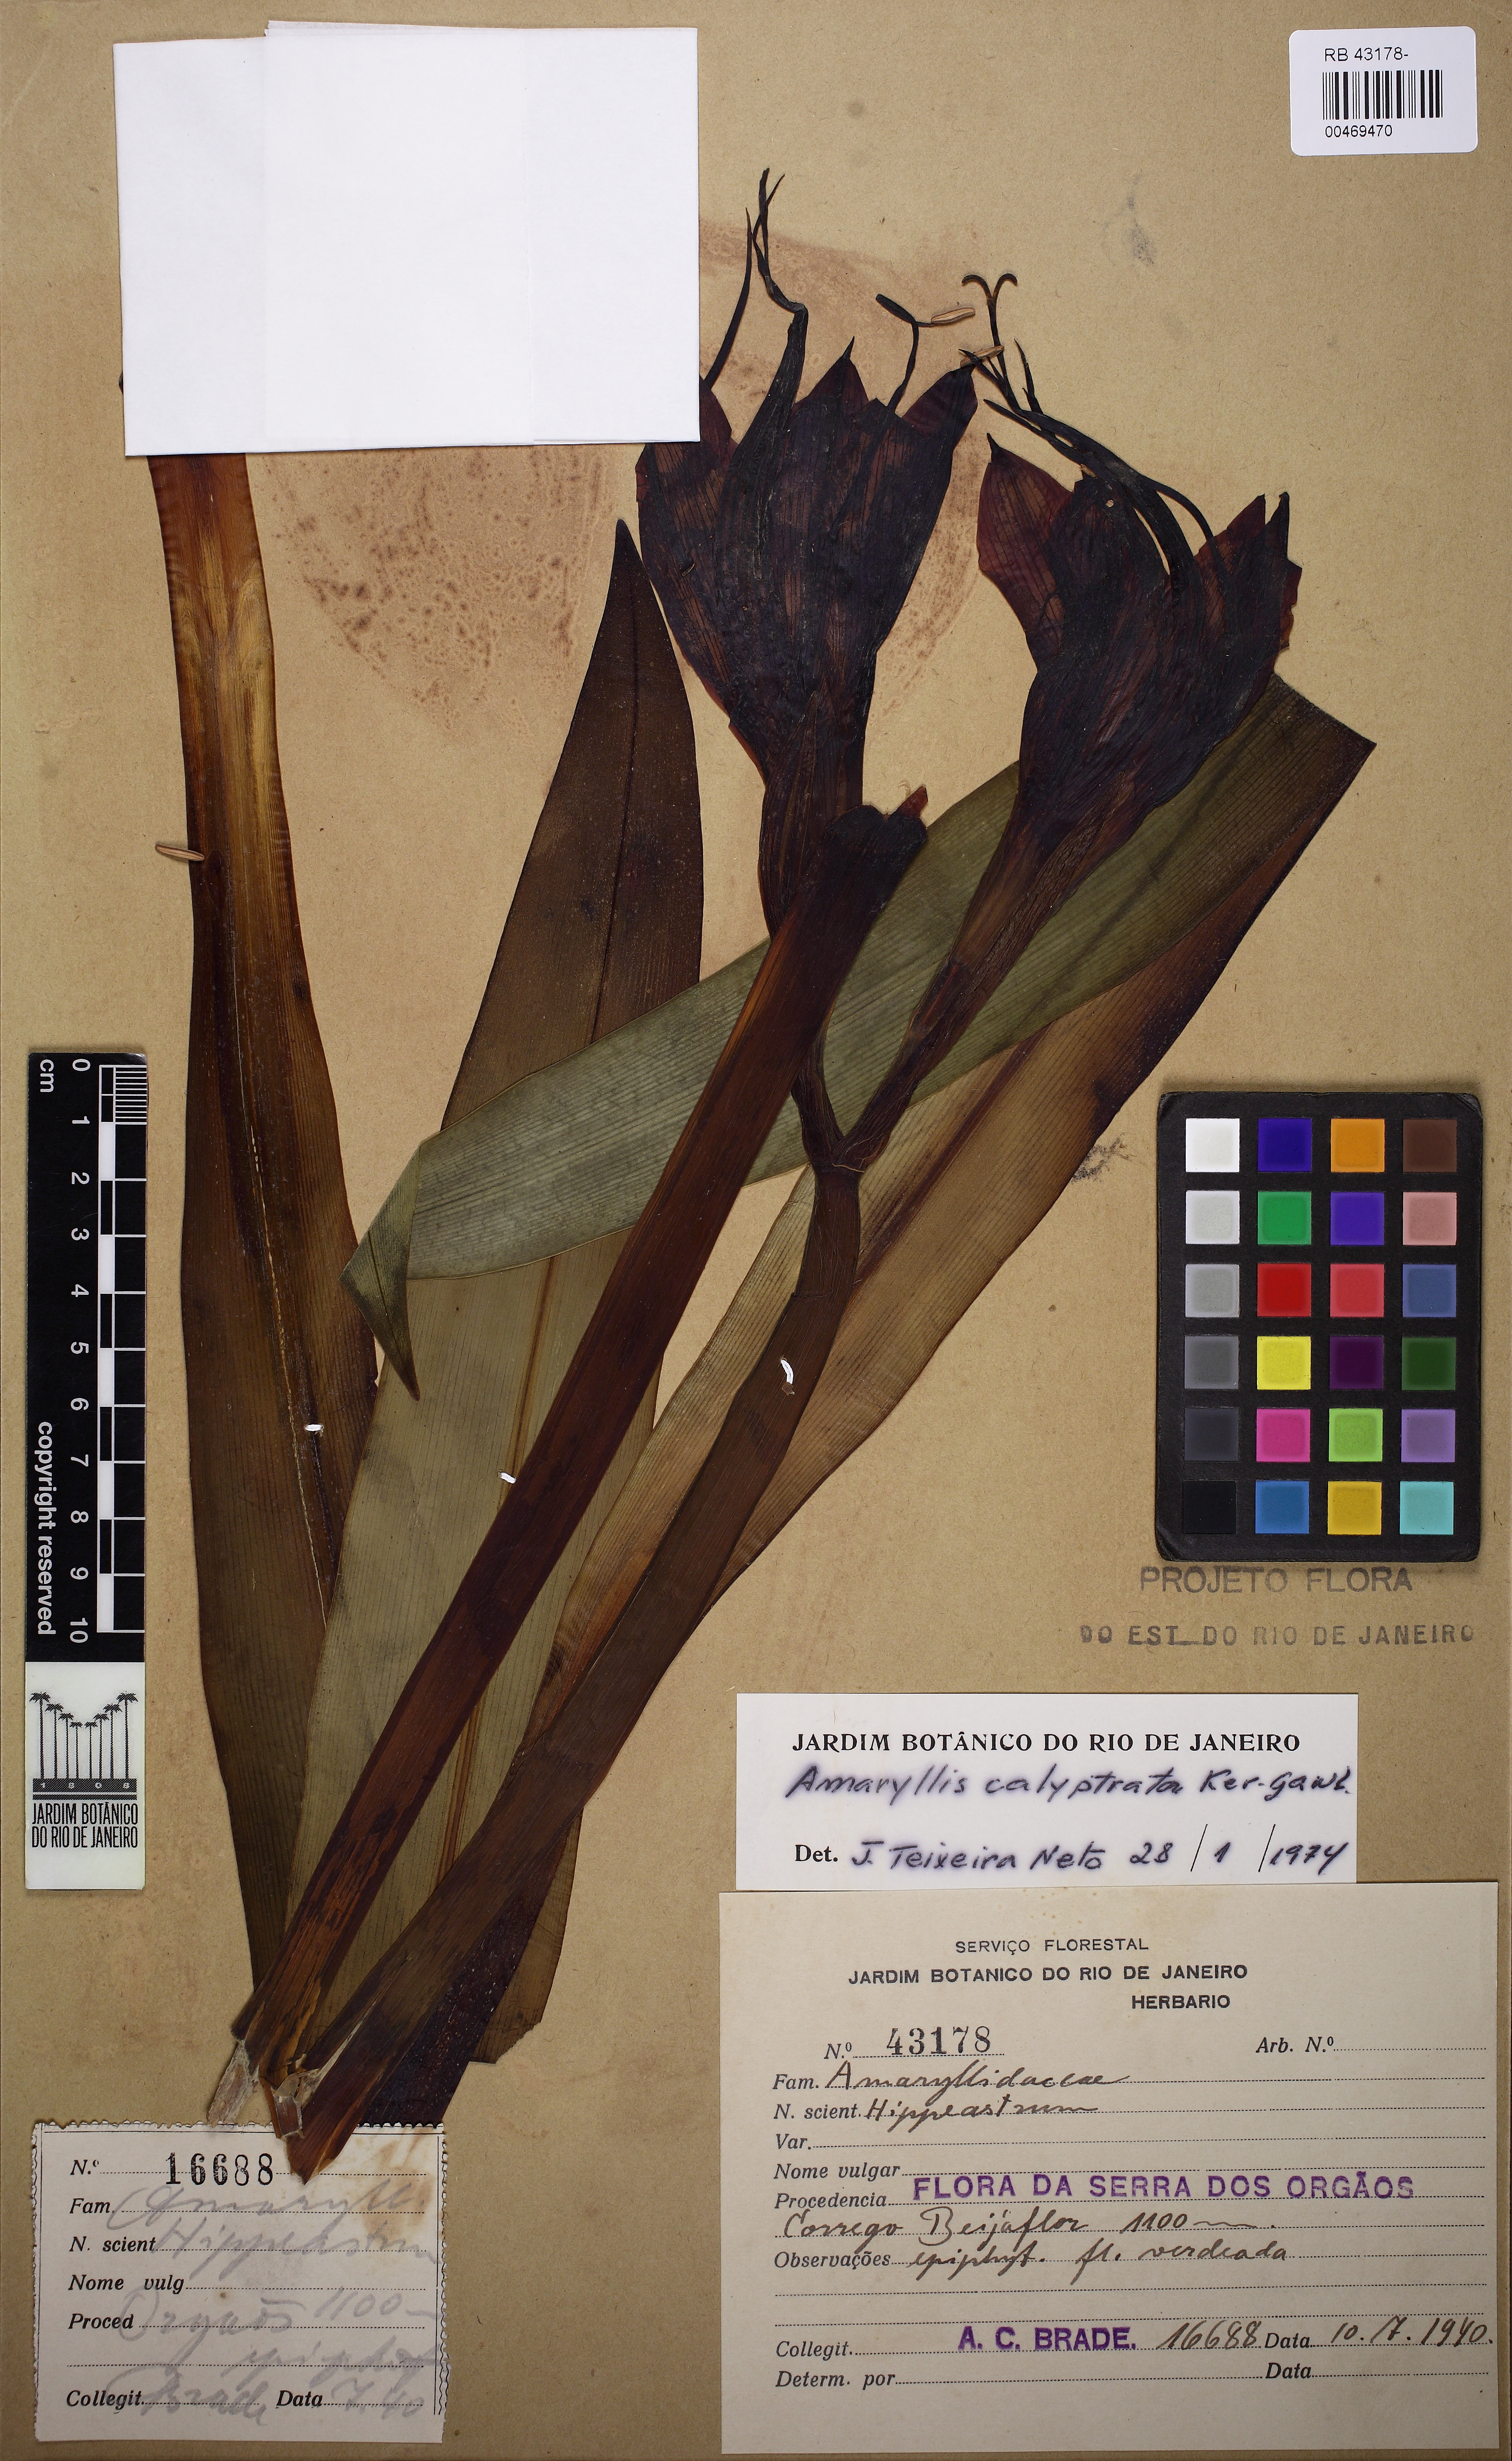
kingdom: Plantae
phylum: Tracheophyta
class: Liliopsida
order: Asparagales
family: Amaryllidaceae
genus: Hippeastrum
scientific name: Hippeastrum calyptratum
